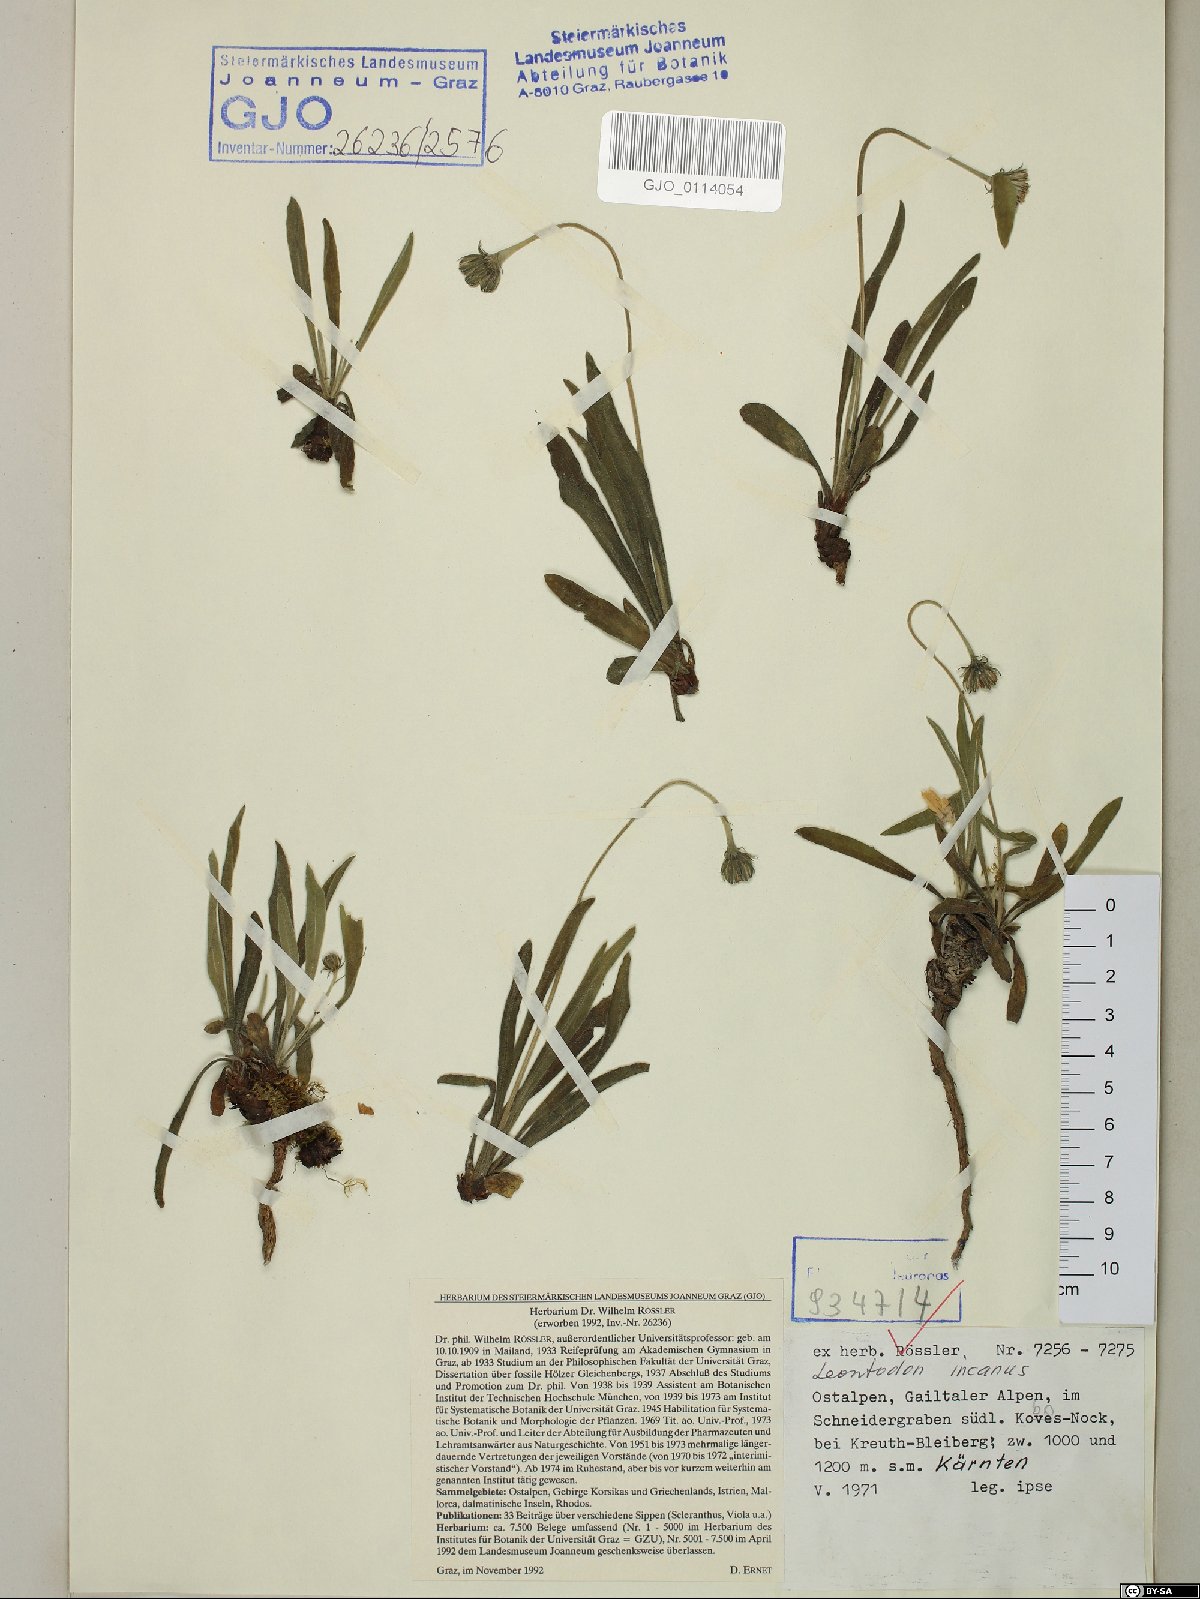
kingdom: Plantae
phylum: Tracheophyta
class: Magnoliopsida
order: Asterales
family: Asteraceae
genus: Leontodon
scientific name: Leontodon incanus
